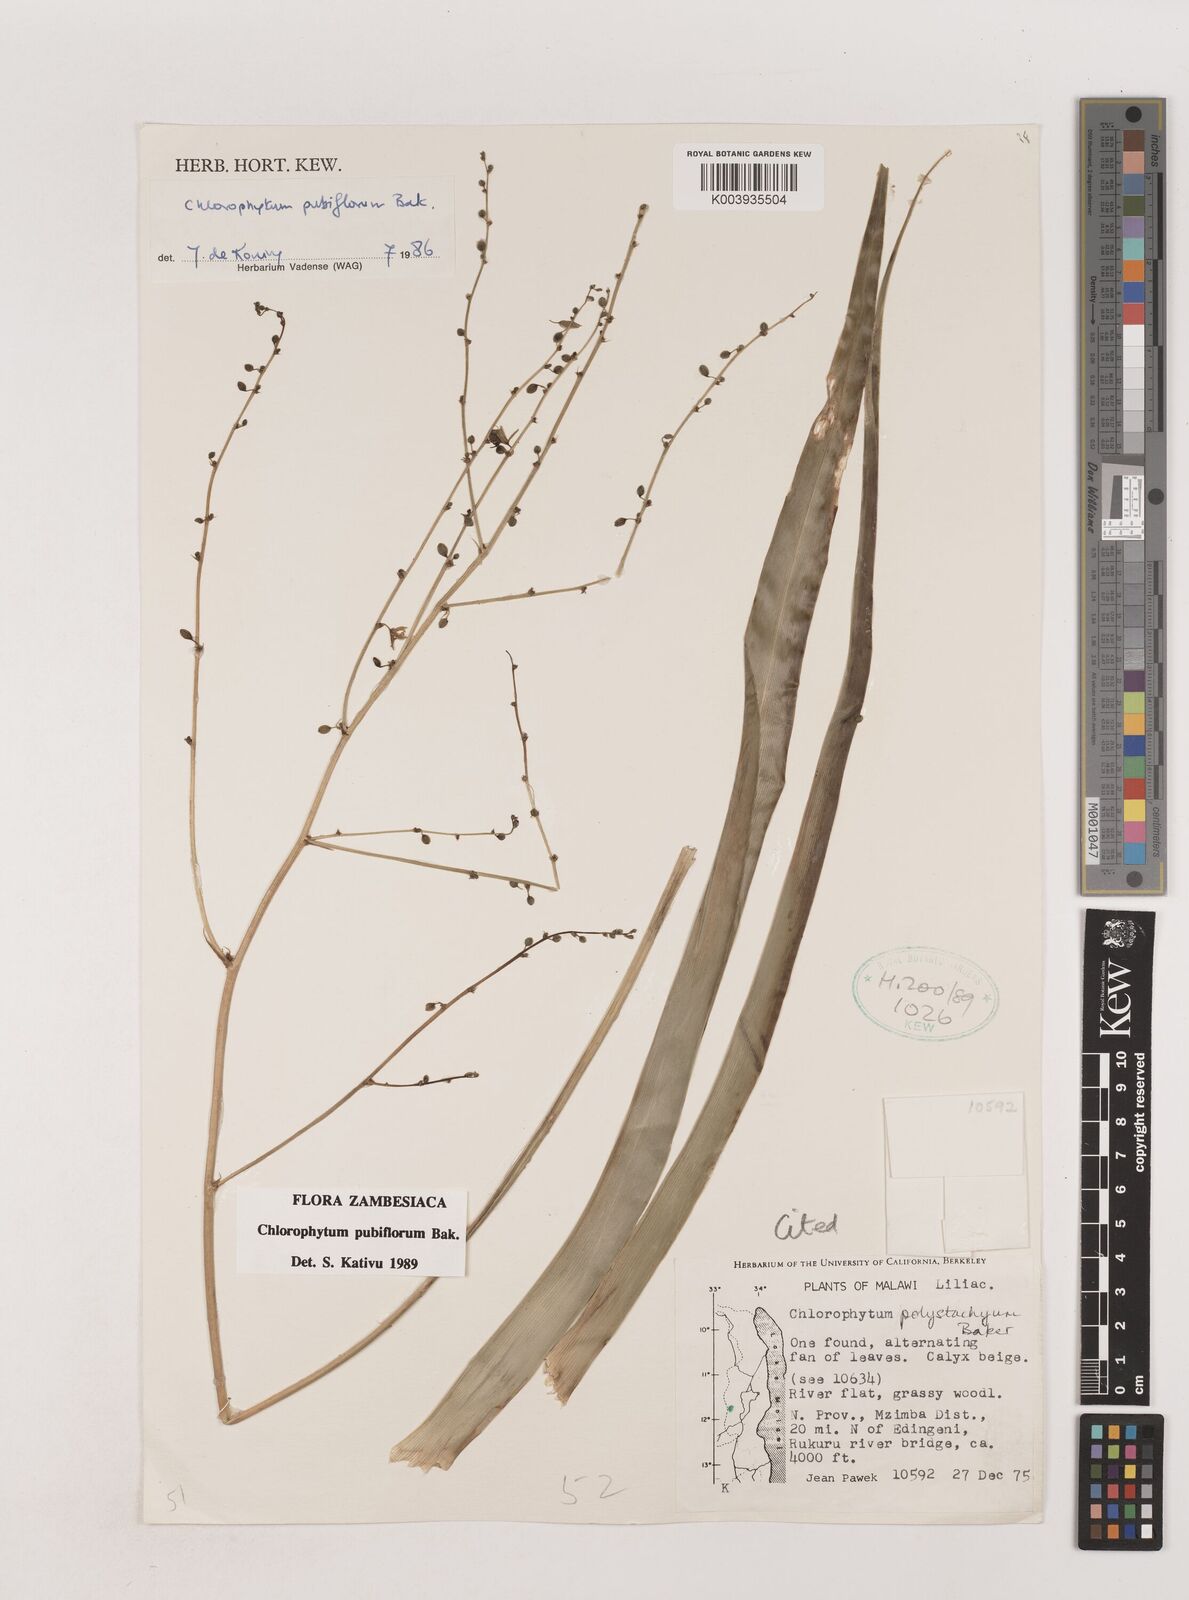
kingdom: Plantae
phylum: Tracheophyta
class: Liliopsida
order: Asparagales
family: Asparagaceae
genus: Chlorophytum
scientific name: Chlorophytum pubiflorum
